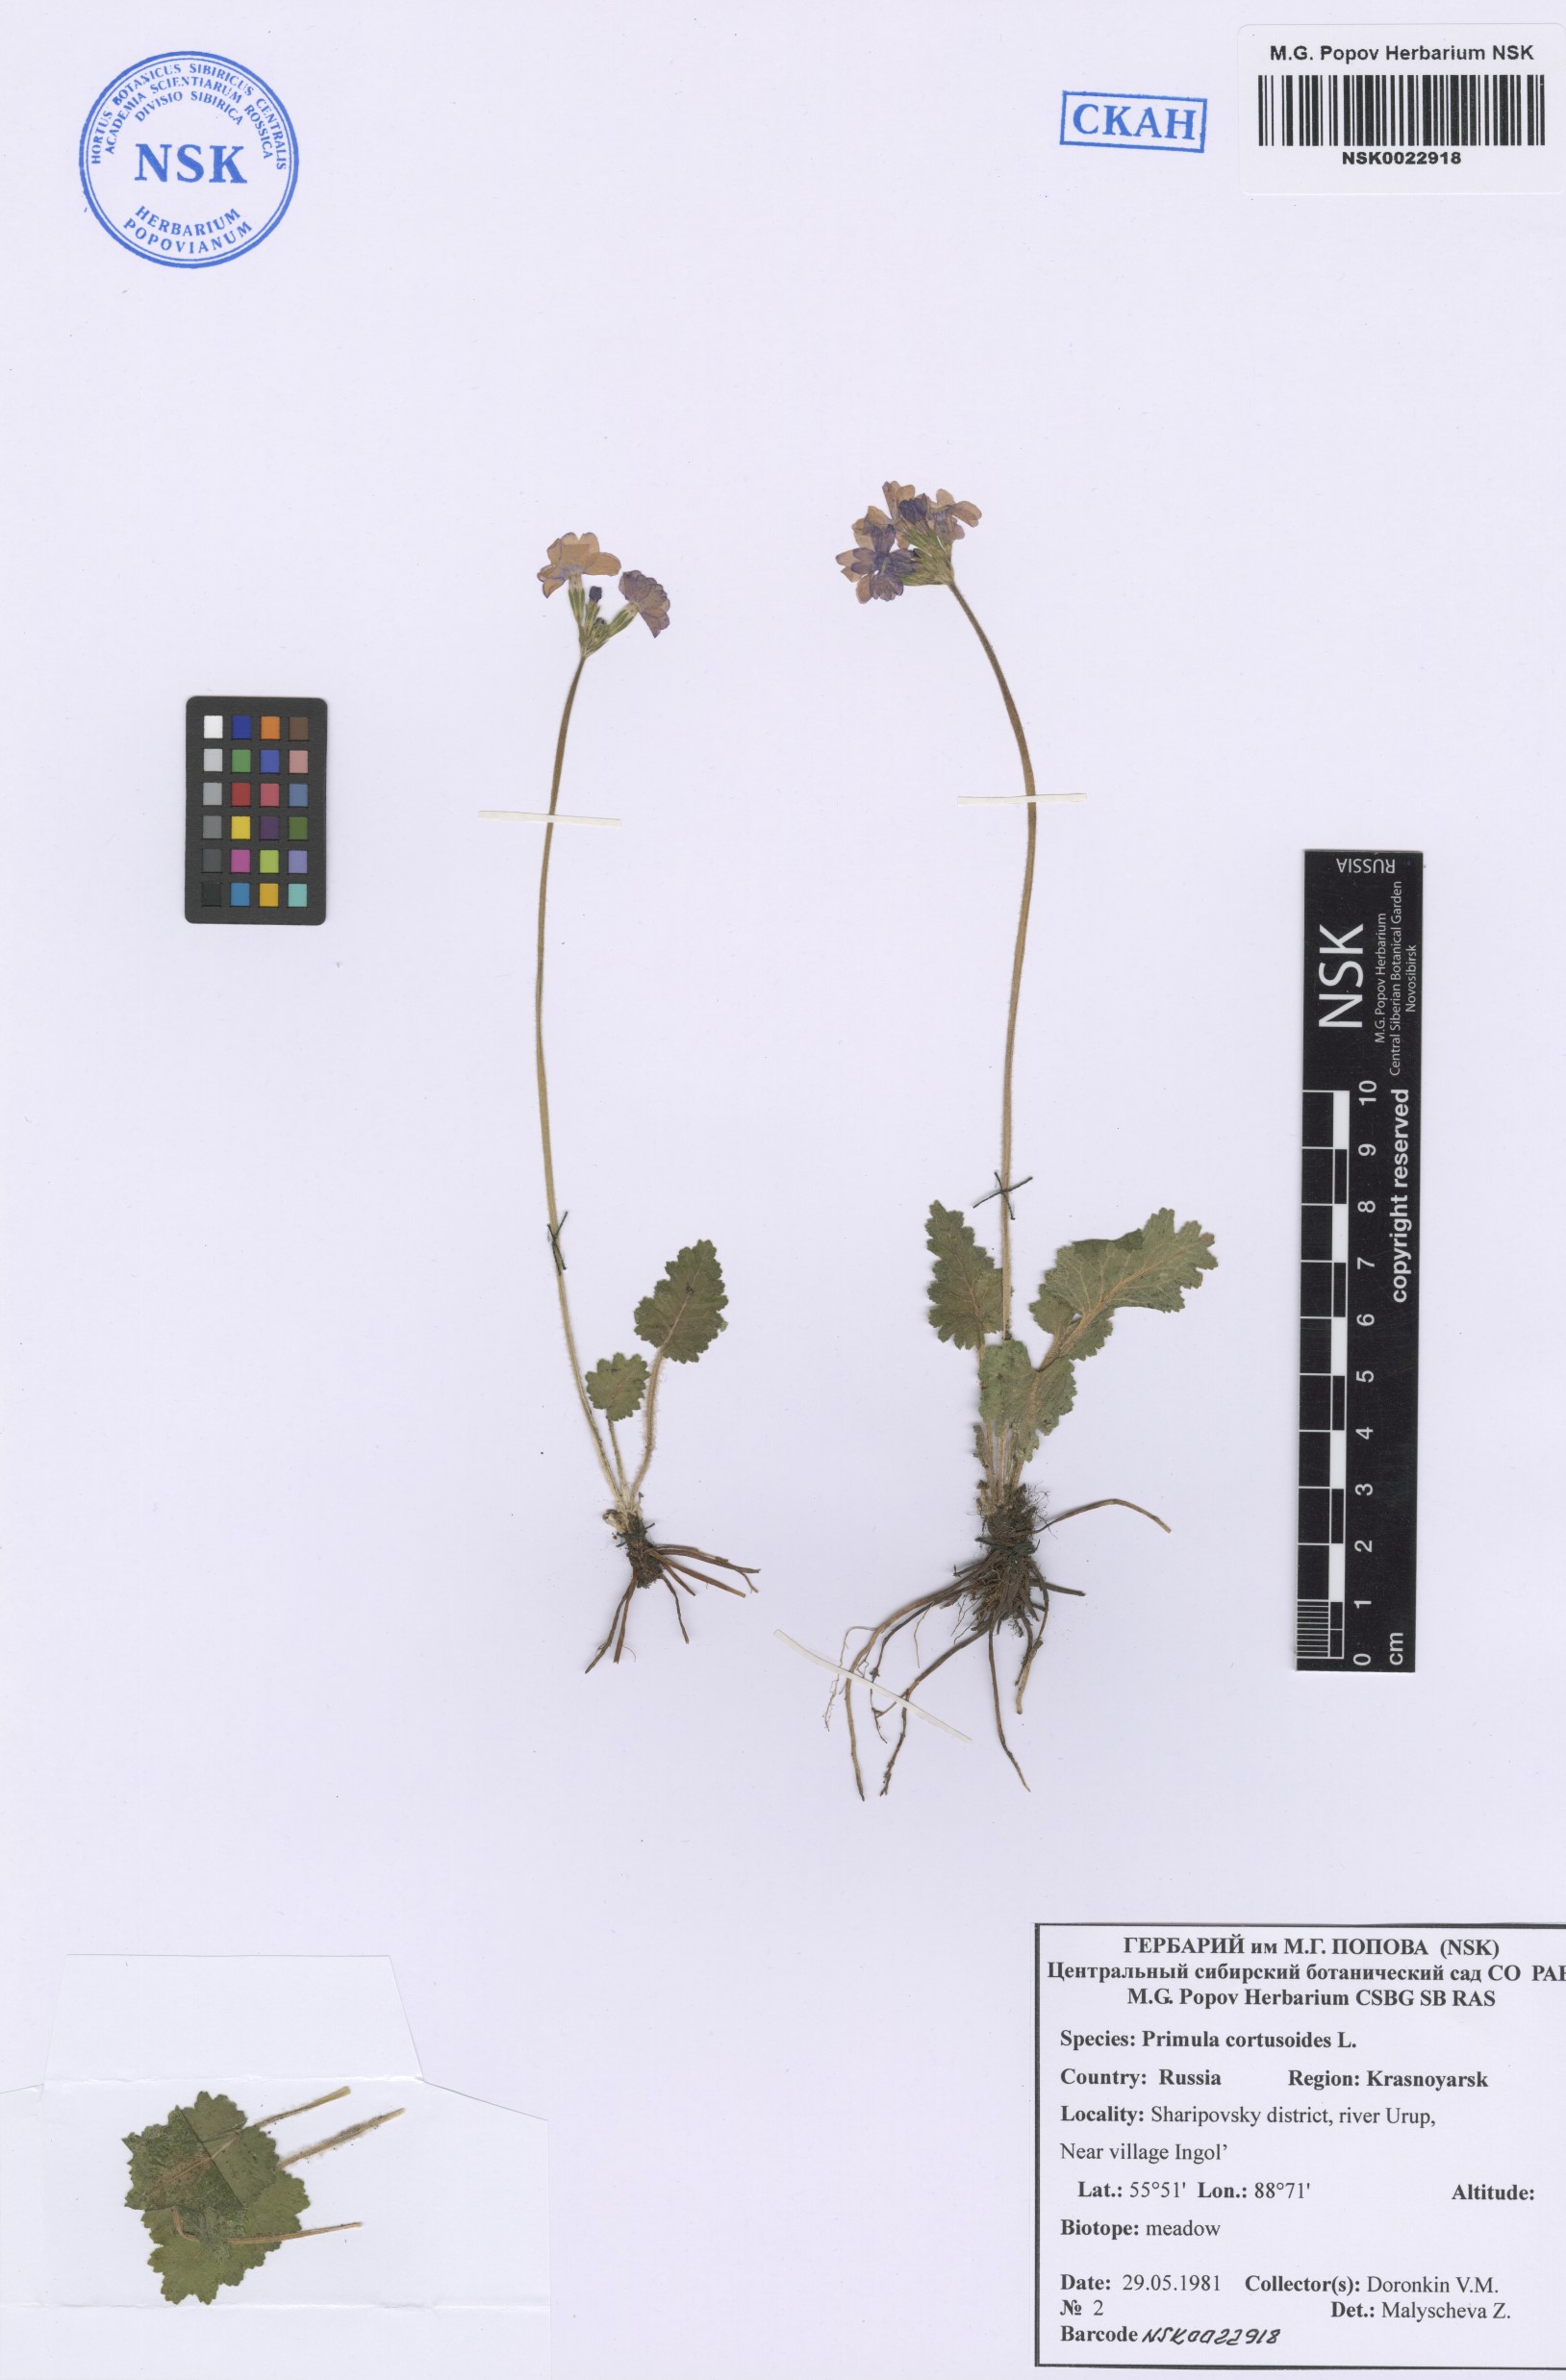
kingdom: Plantae
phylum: Tracheophyta
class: Magnoliopsida
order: Ericales
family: Primulaceae
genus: Primula
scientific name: Primula cortusoides
